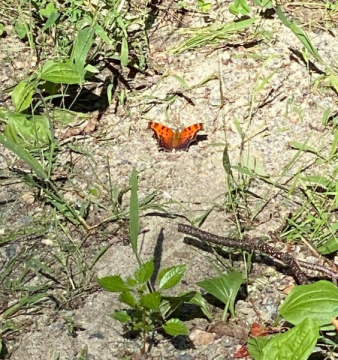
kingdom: Animalia
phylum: Arthropoda
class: Insecta
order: Lepidoptera
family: Nymphalidae
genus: Polygonia
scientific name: Polygonia progne
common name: Gray Comma
